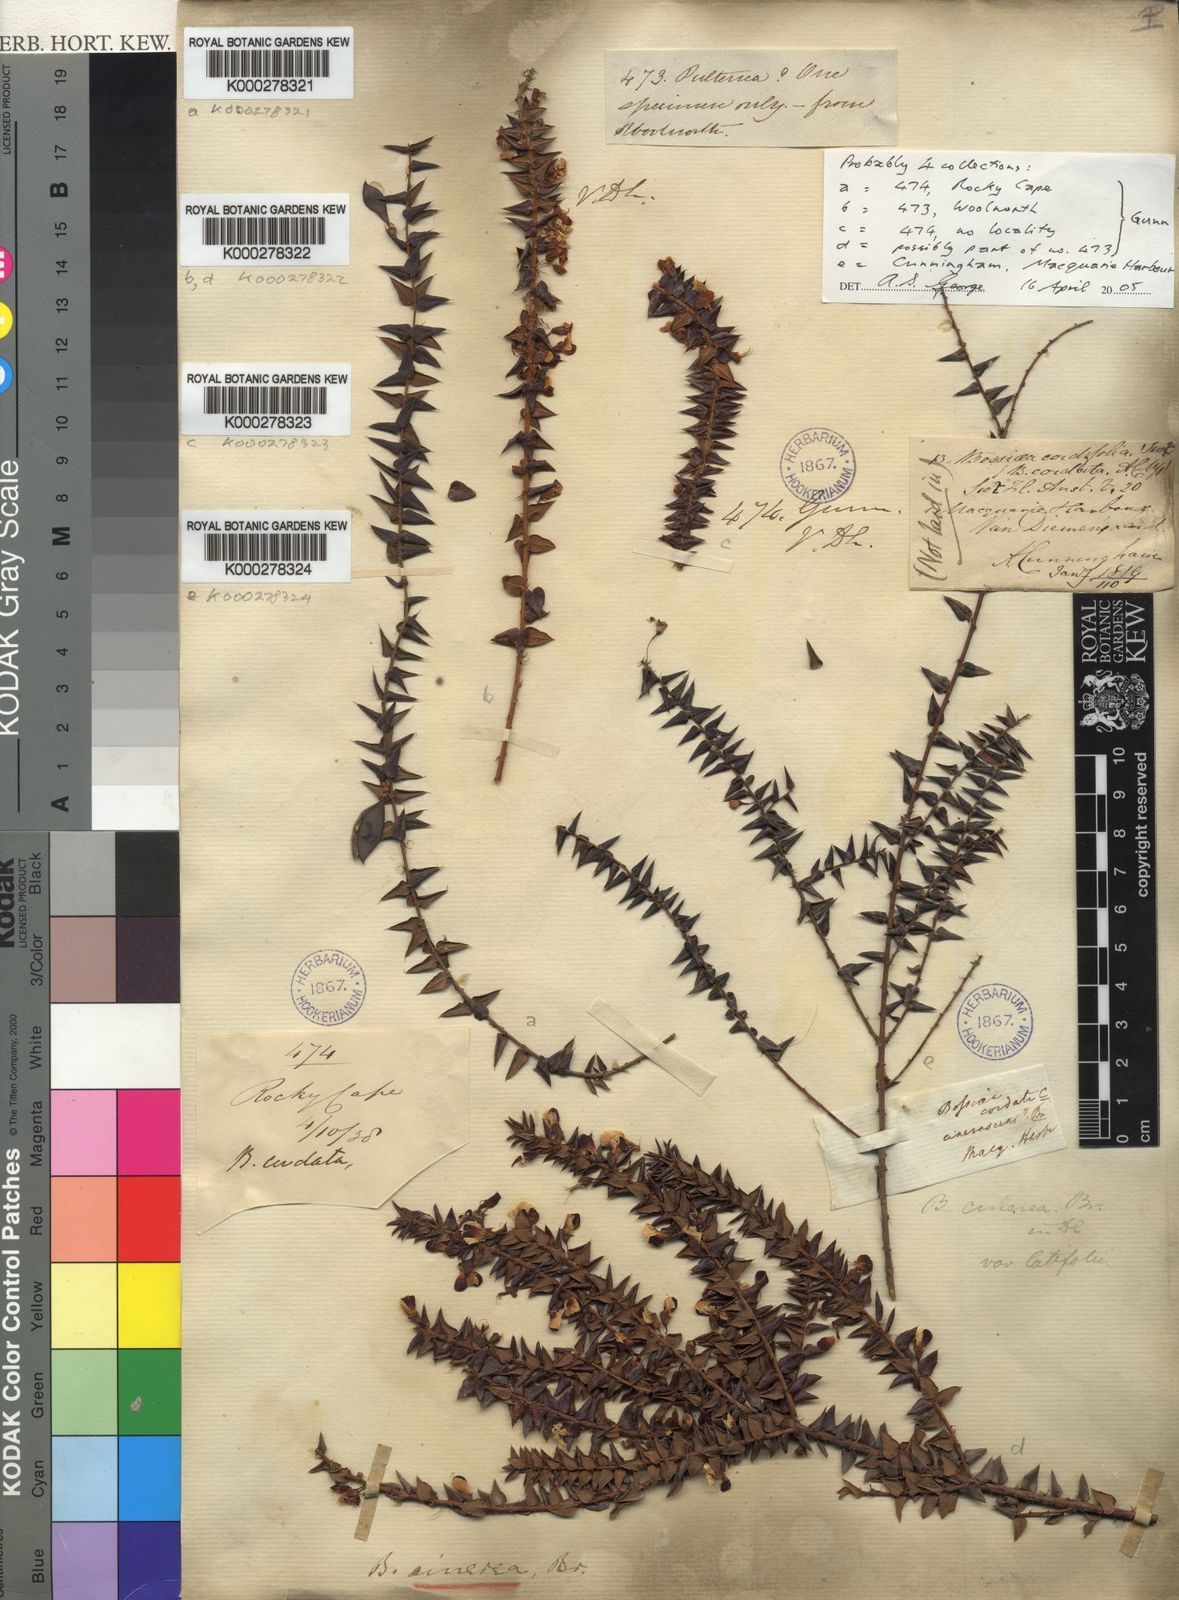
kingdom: Plantae
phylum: Tracheophyta
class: Magnoliopsida
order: Fabales
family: Fabaceae
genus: Bossiaea
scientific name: Bossiaea cinerea
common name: Showy bossiaea
